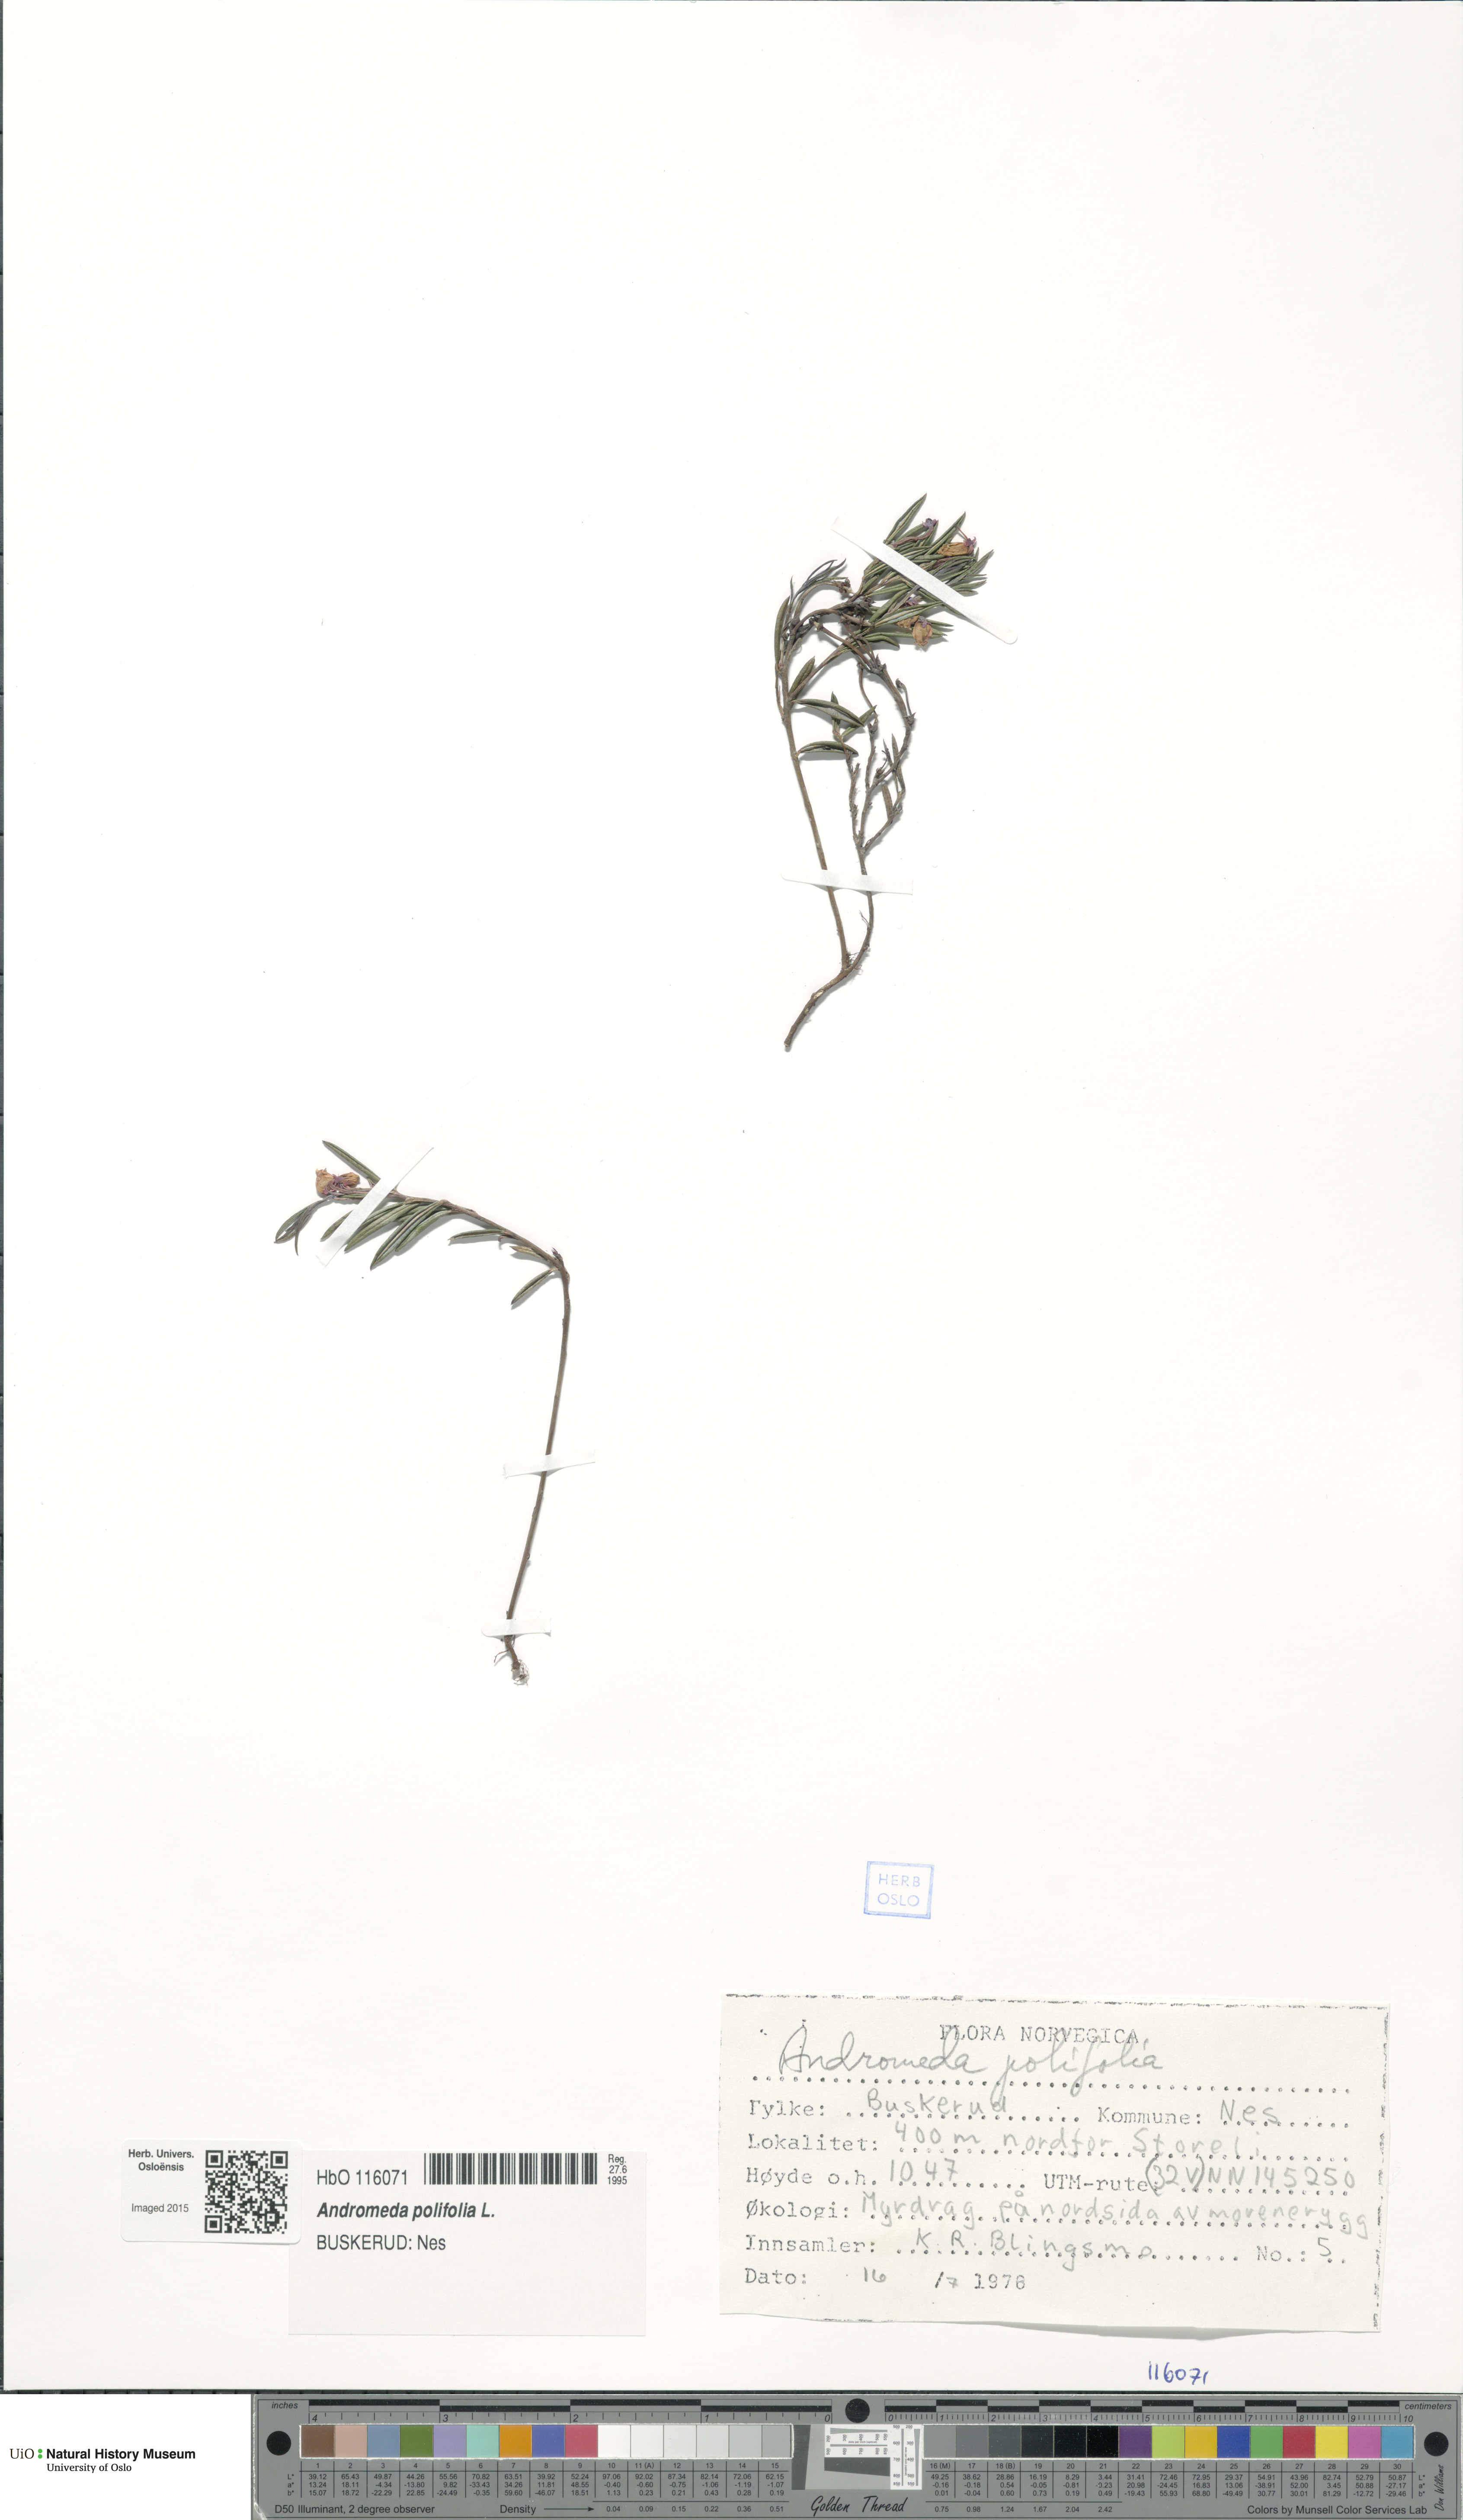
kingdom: Plantae
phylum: Tracheophyta
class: Magnoliopsida
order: Ericales
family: Ericaceae
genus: Andromeda
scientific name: Andromeda polifolia
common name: Bog-rosemary
